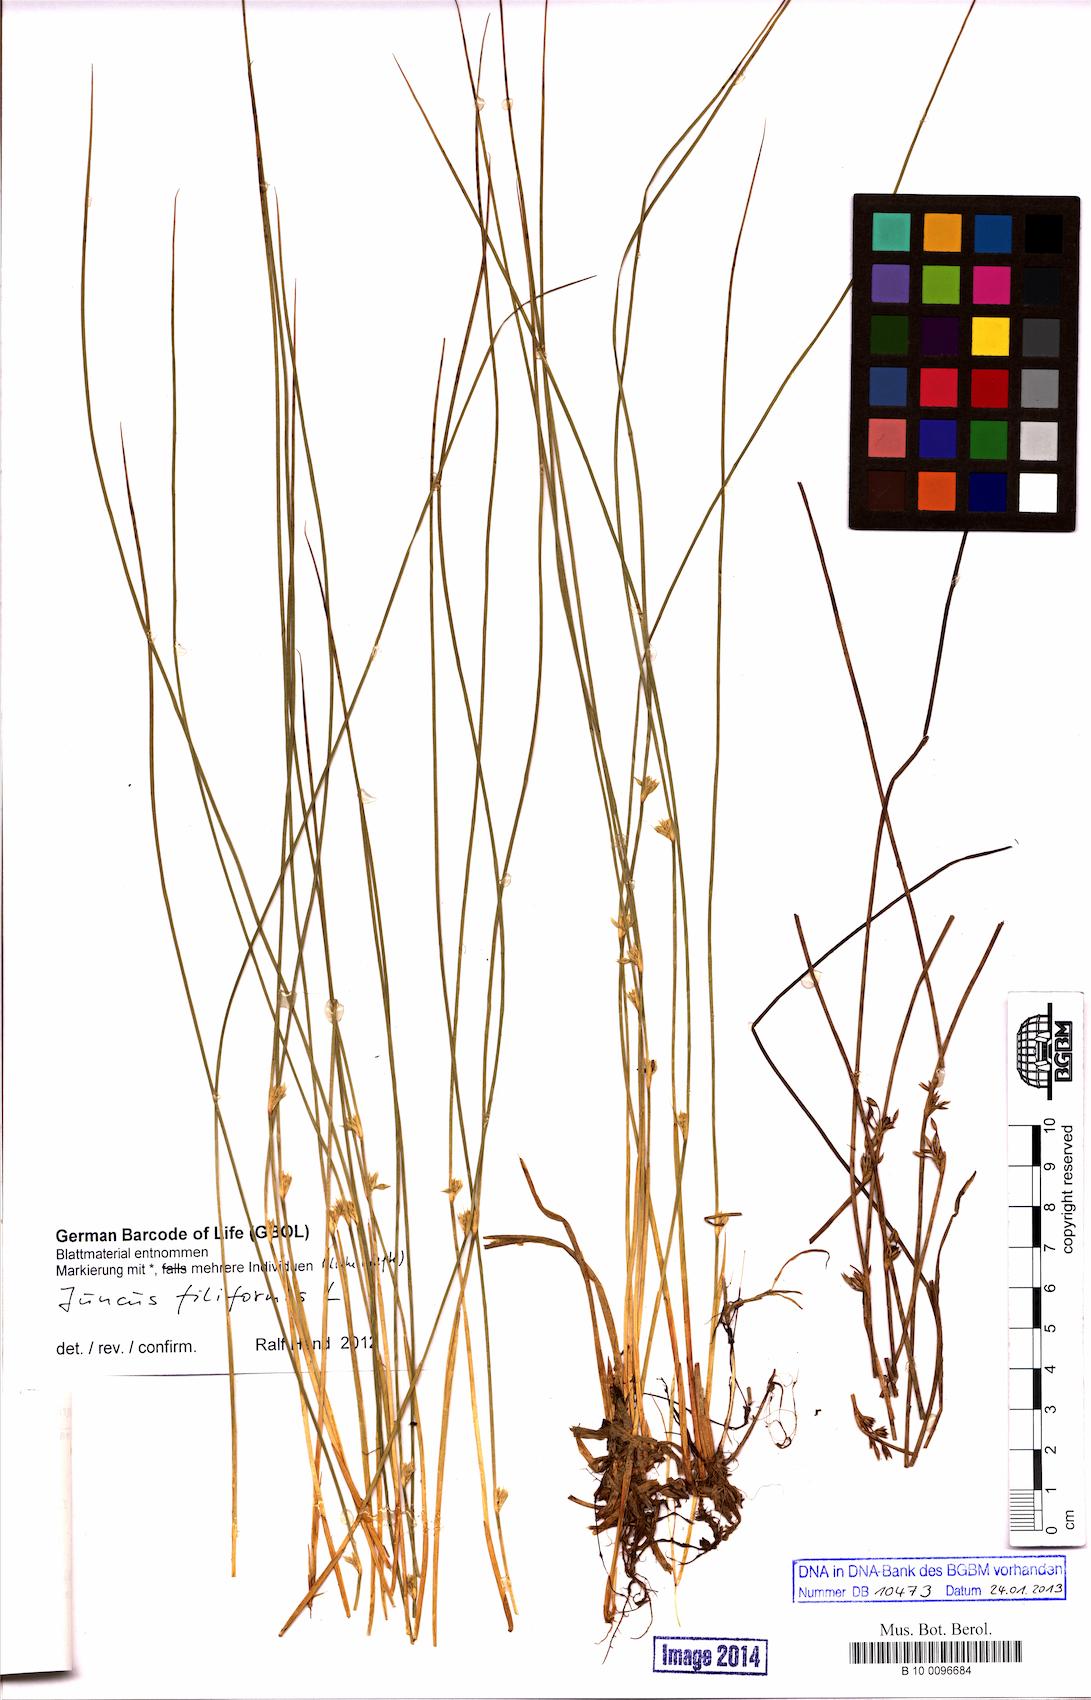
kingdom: Plantae
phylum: Tracheophyta
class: Liliopsida
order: Poales
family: Juncaceae
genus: Juncus
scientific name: Juncus filiformis
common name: Thread rush
